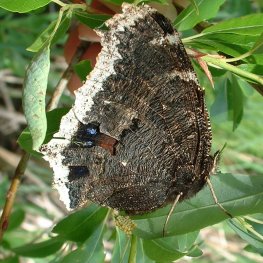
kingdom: Animalia
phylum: Arthropoda
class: Insecta
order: Lepidoptera
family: Nymphalidae
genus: Nymphalis
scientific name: Nymphalis antiopa
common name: Mourning Cloak
